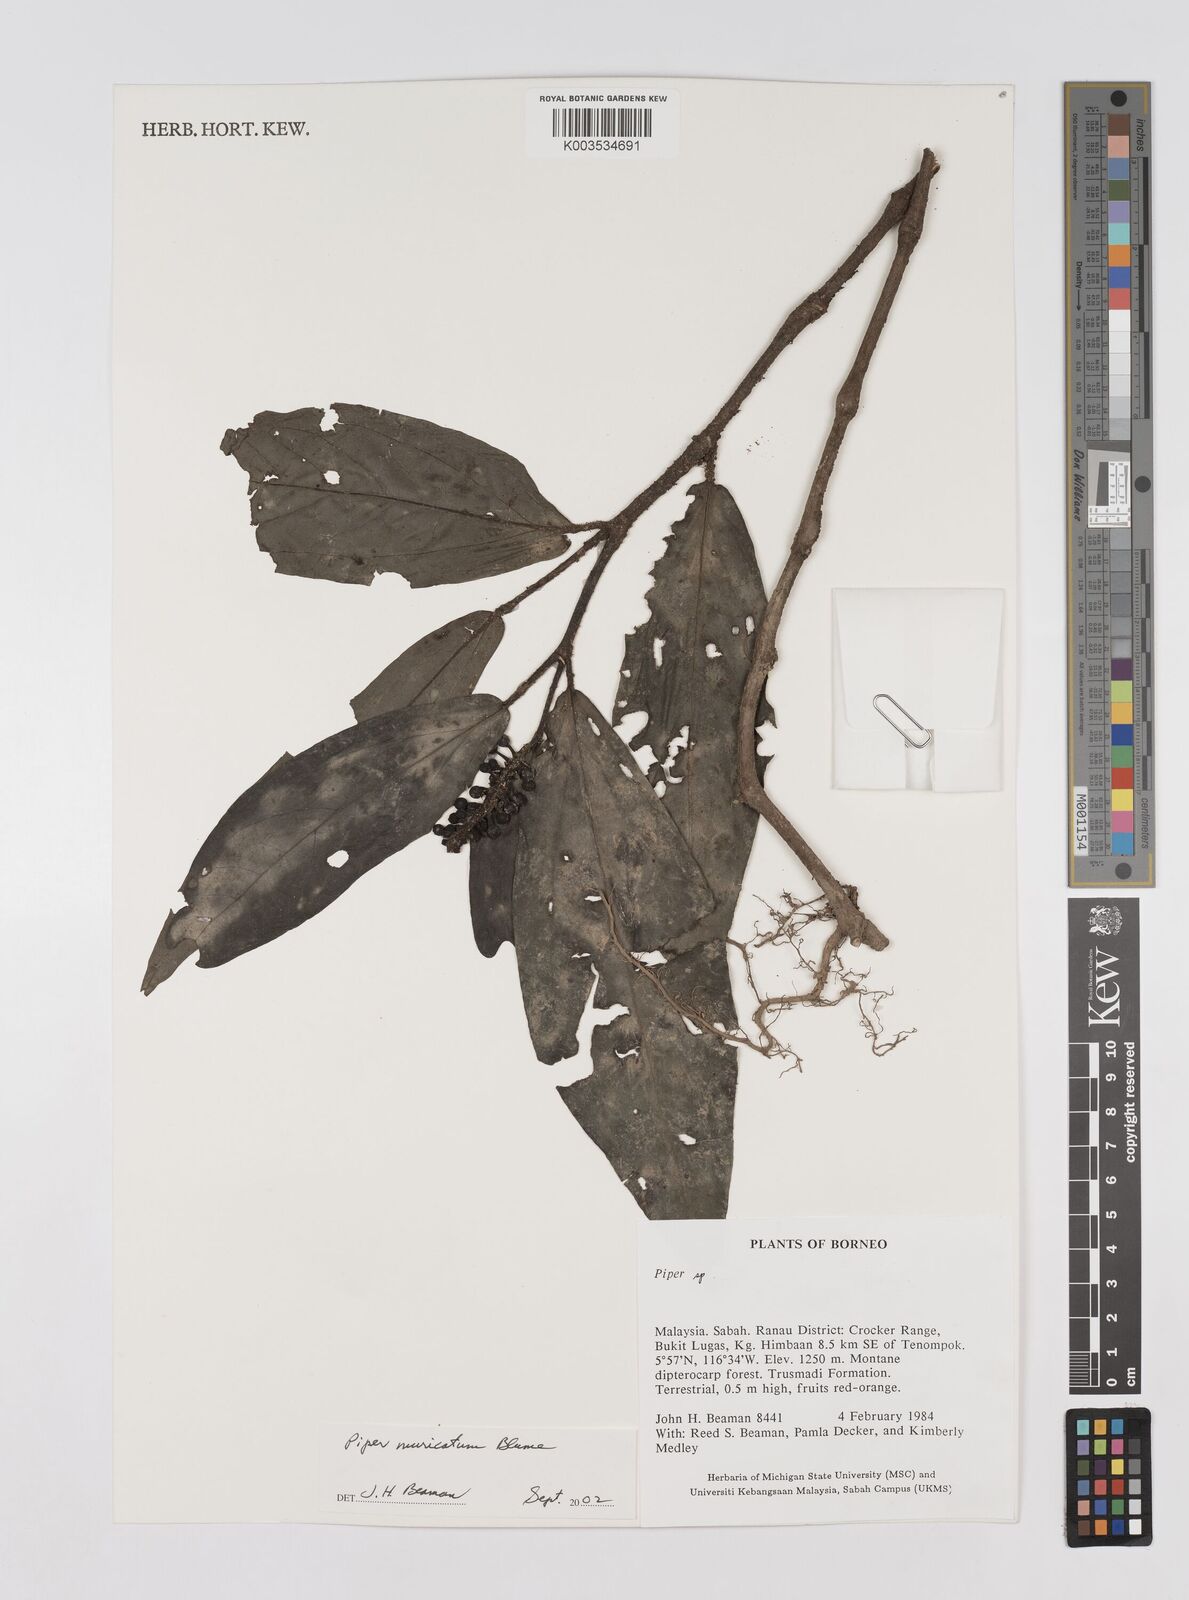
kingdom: Plantae
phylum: Tracheophyta
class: Magnoliopsida
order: Piperales
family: Piperaceae
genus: Piper
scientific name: Piper muricatum
